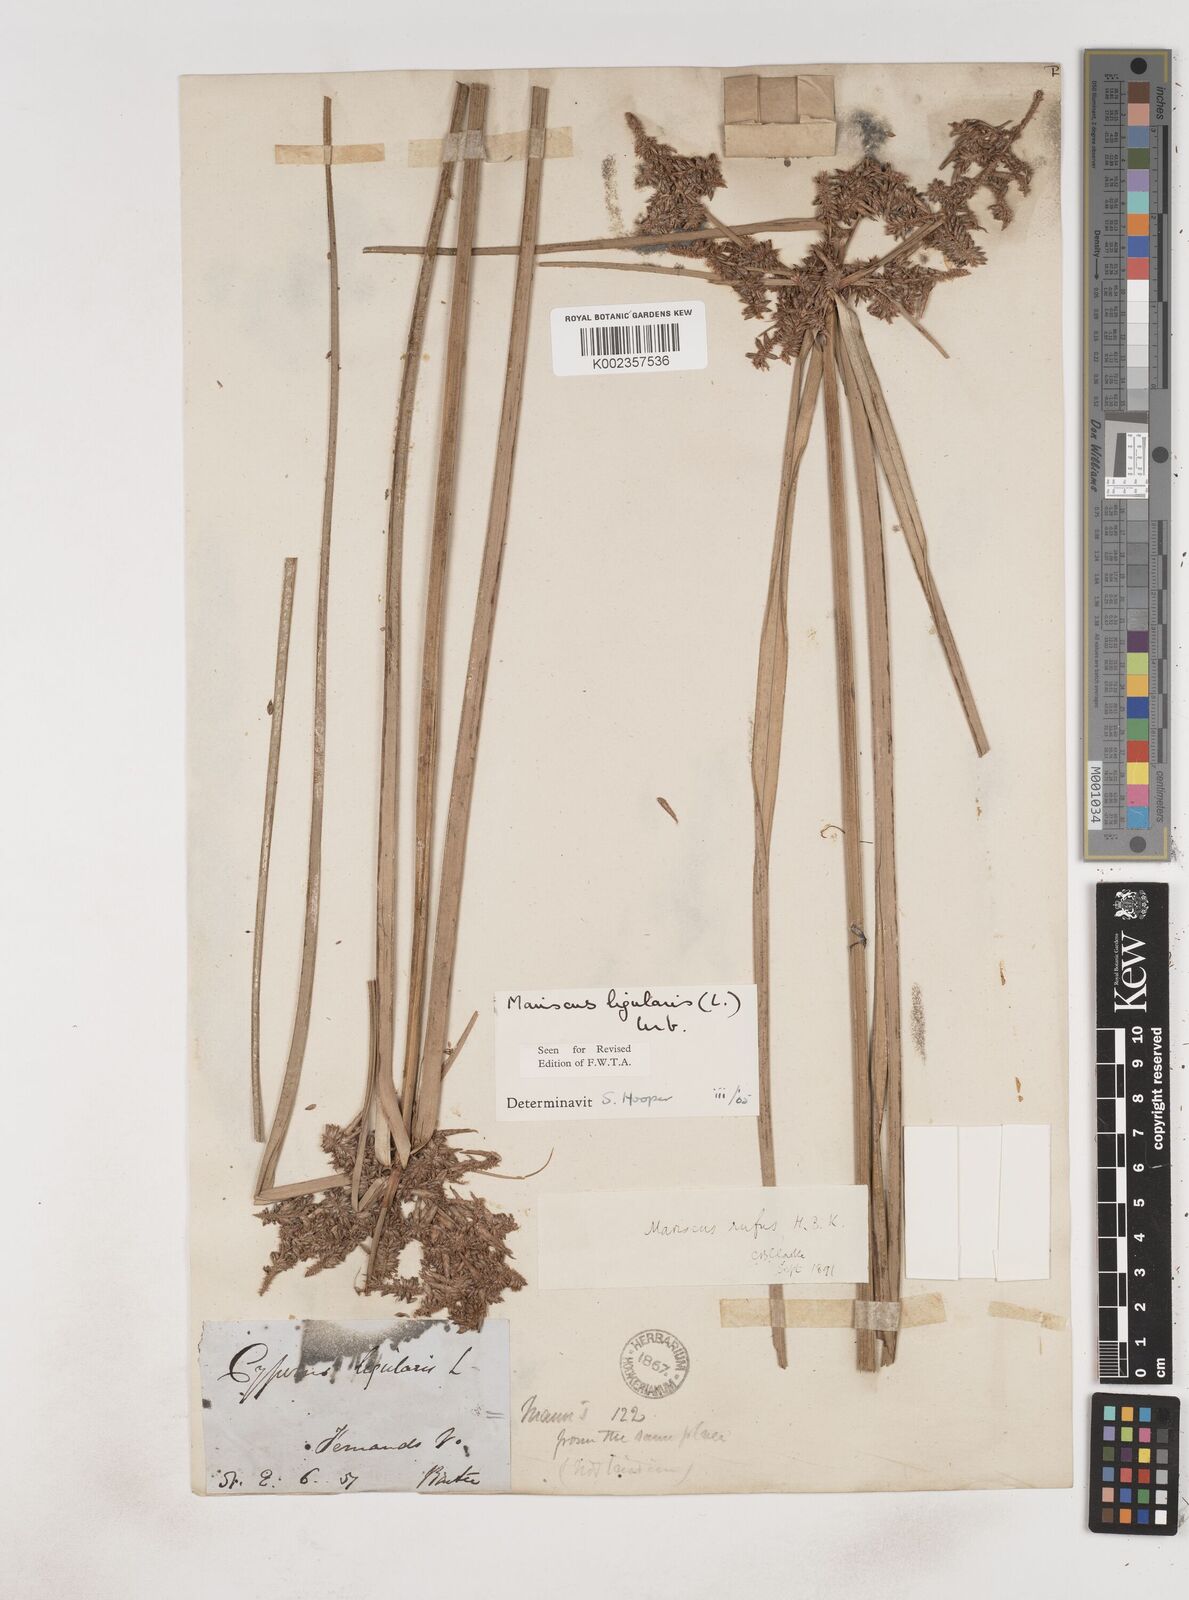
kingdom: Plantae
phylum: Tracheophyta
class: Liliopsida
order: Poales
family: Cyperaceae
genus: Cyperus
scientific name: Cyperus ligularis
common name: Swamp flat sedge
